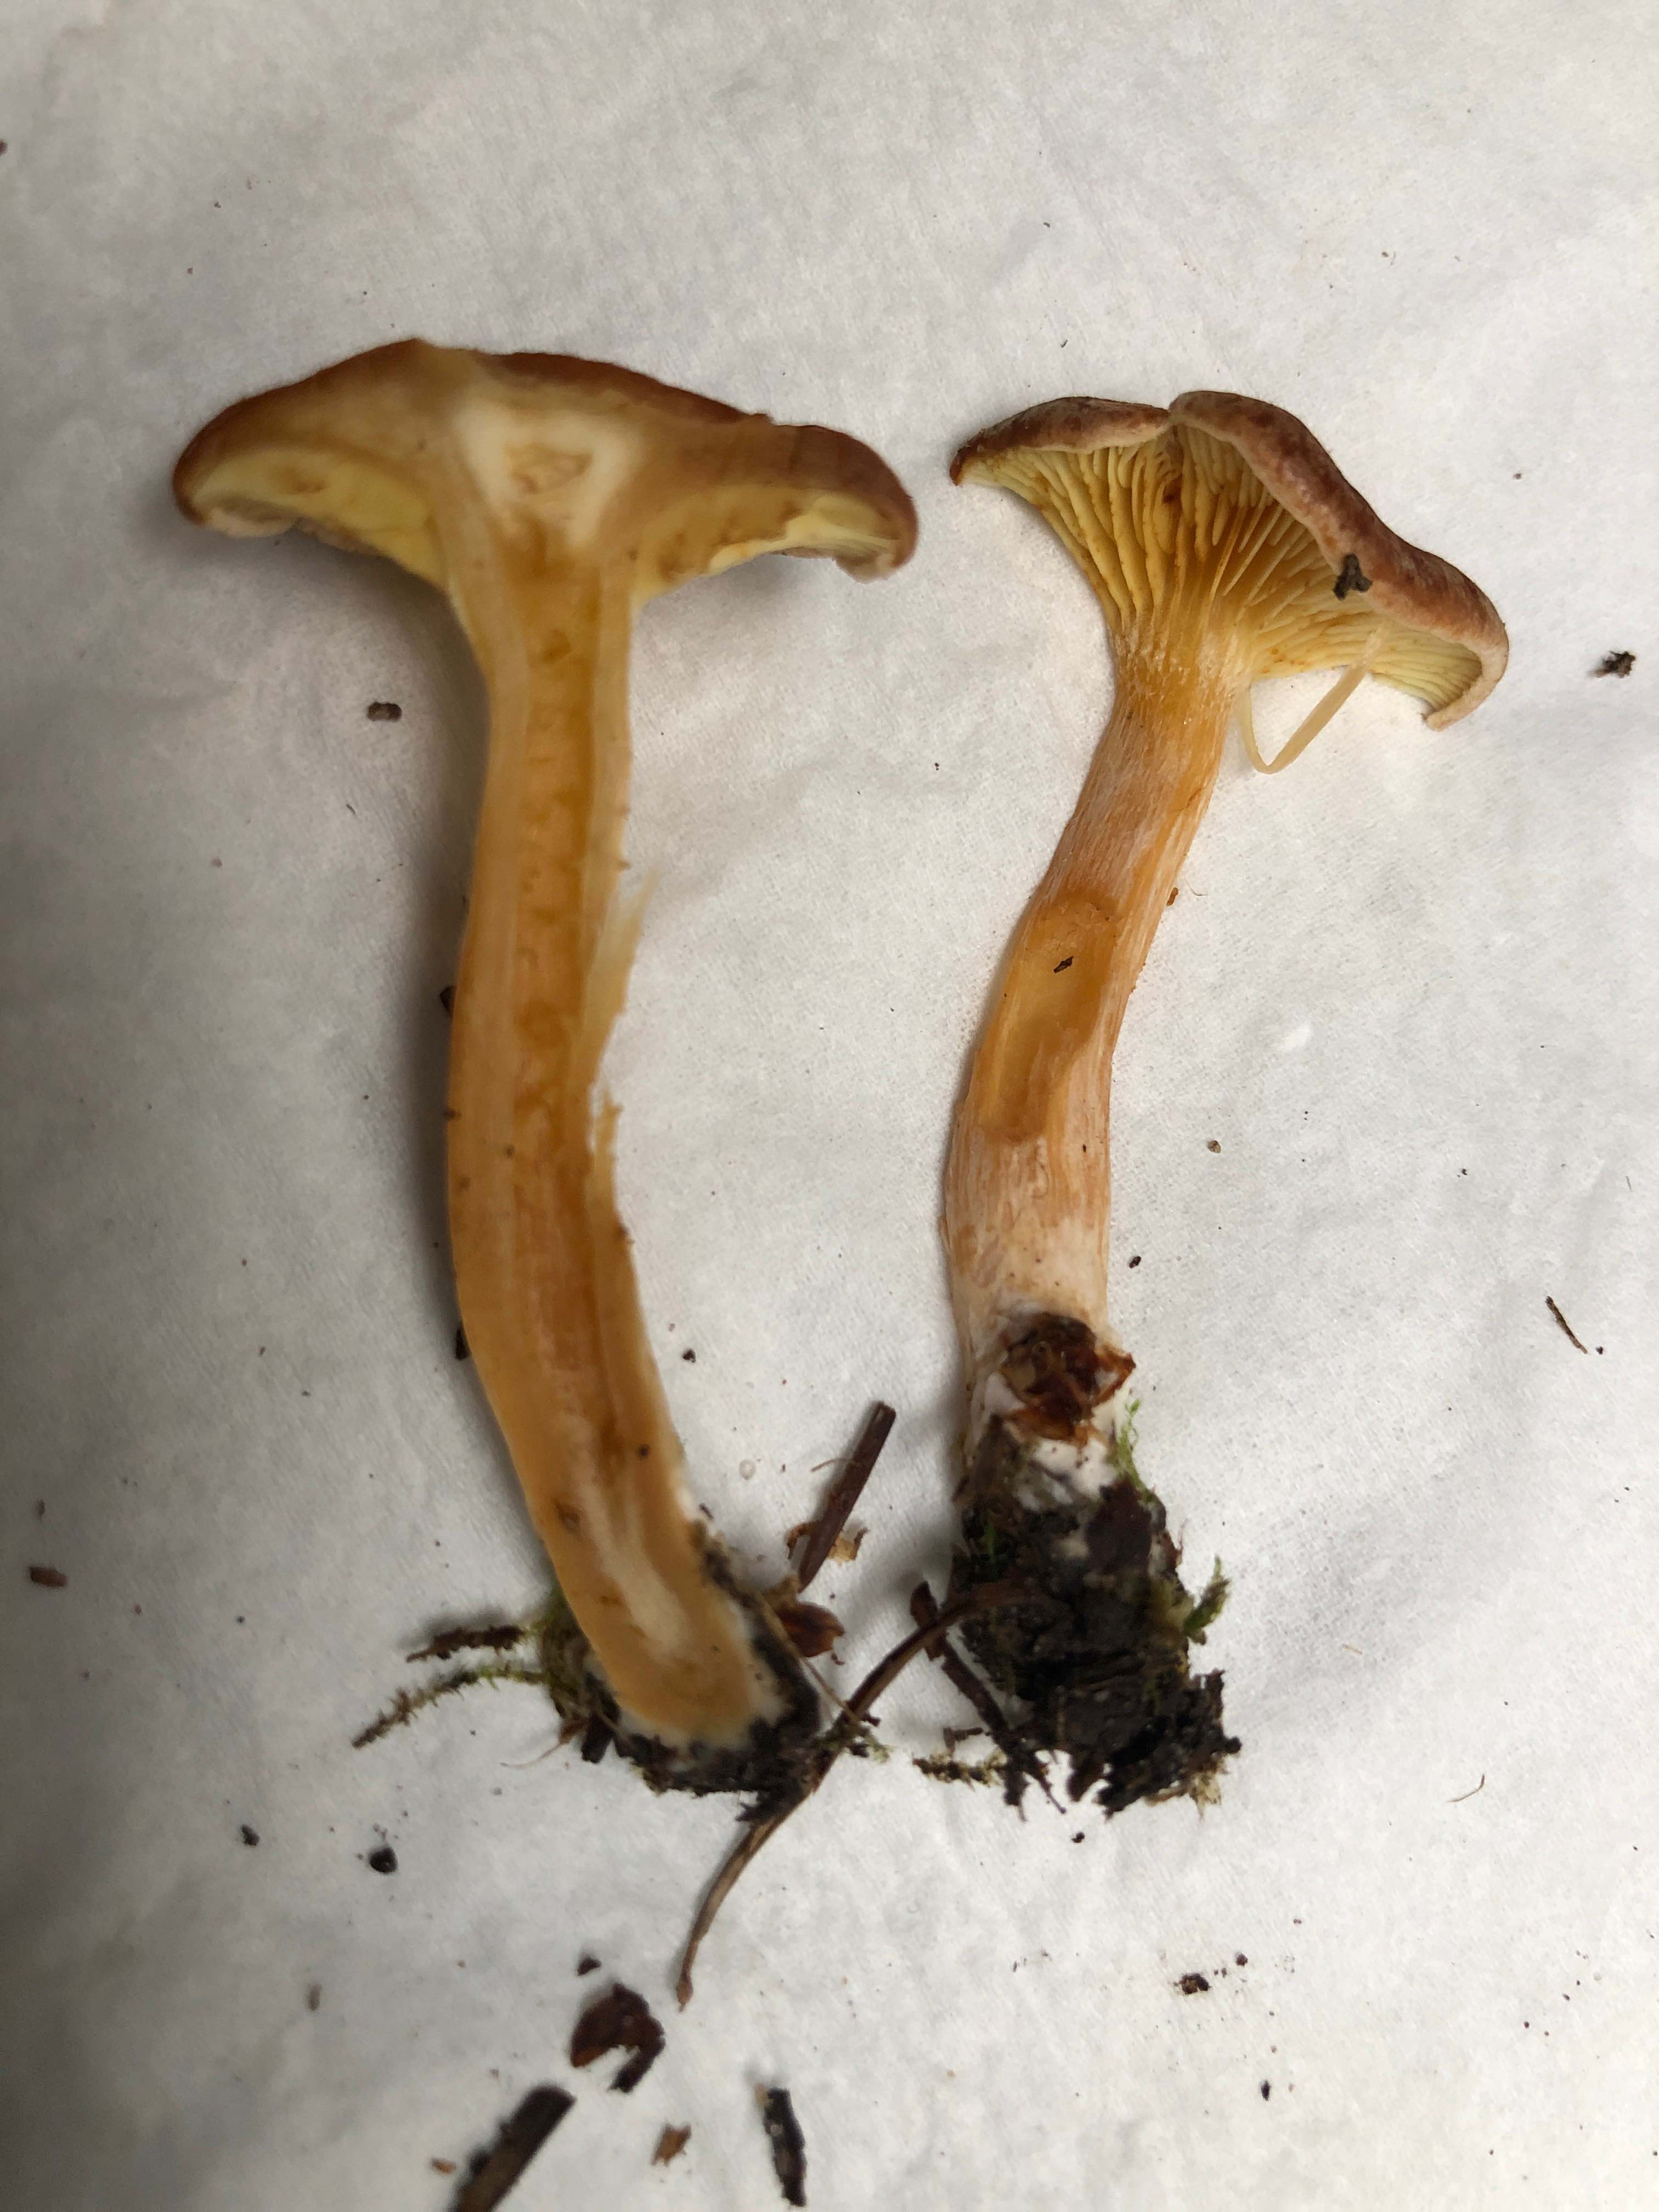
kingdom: Fungi
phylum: Basidiomycota
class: Agaricomycetes
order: Agaricales
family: Hymenogastraceae
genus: Gymnopilus
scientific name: Gymnopilus
